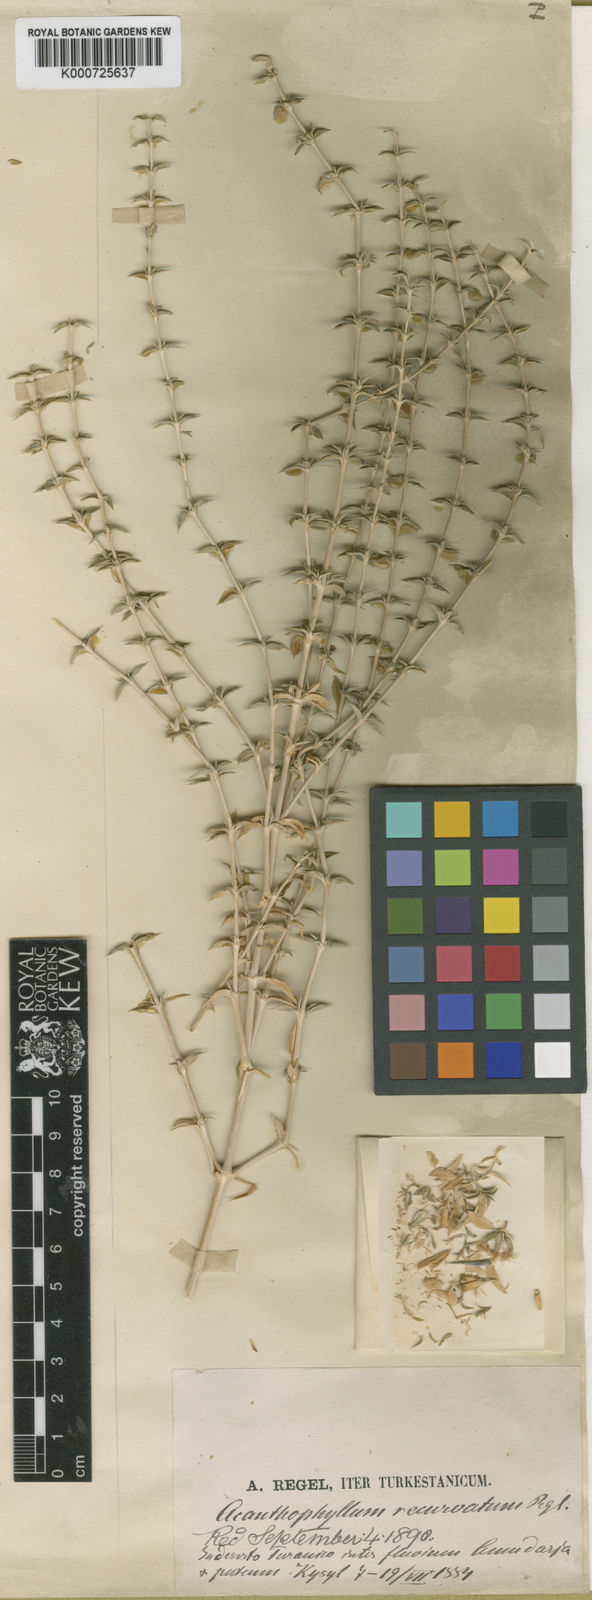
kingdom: Plantae
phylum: Tracheophyta
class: Magnoliopsida
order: Caryophyllales
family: Caryophyllaceae
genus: Acanthophyllum
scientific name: Acanthophyllum elatius
